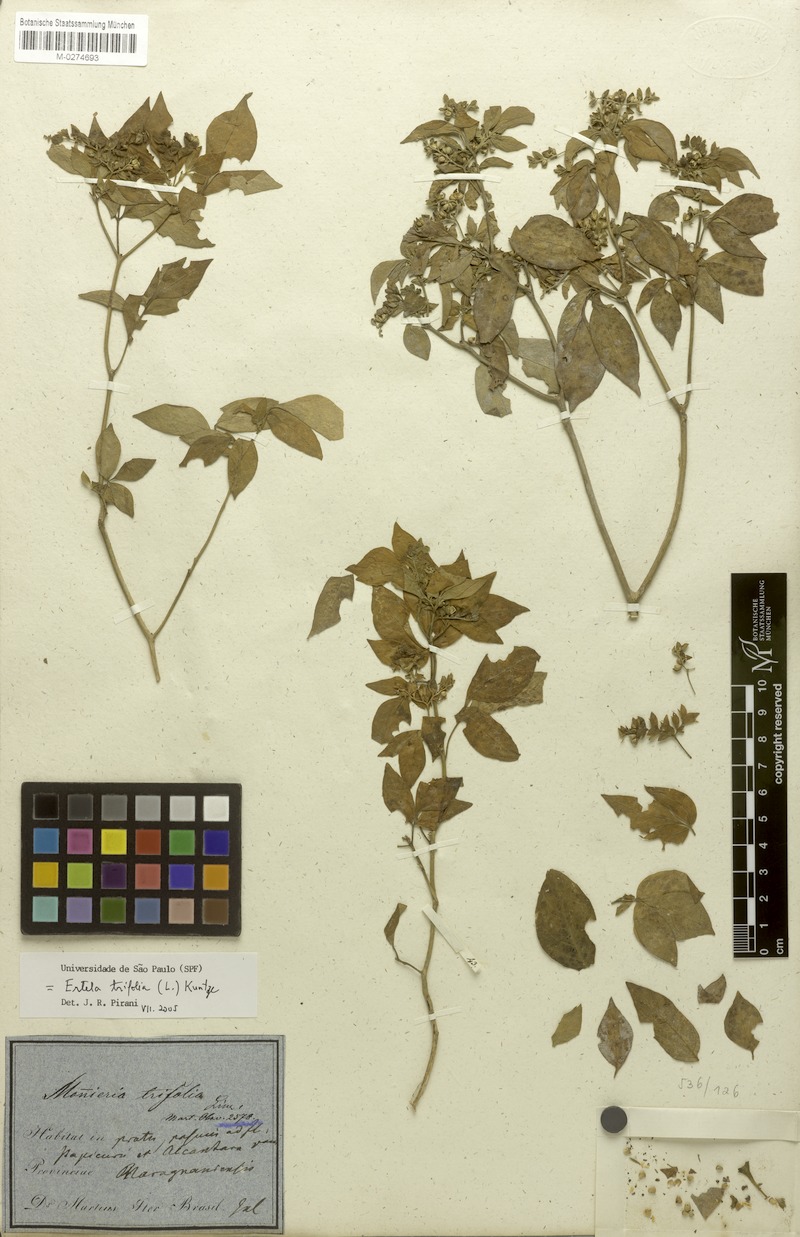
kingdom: Plantae
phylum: Tracheophyta
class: Magnoliopsida
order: Sapindales
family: Rutaceae
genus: Ertela
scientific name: Ertela trifolia
